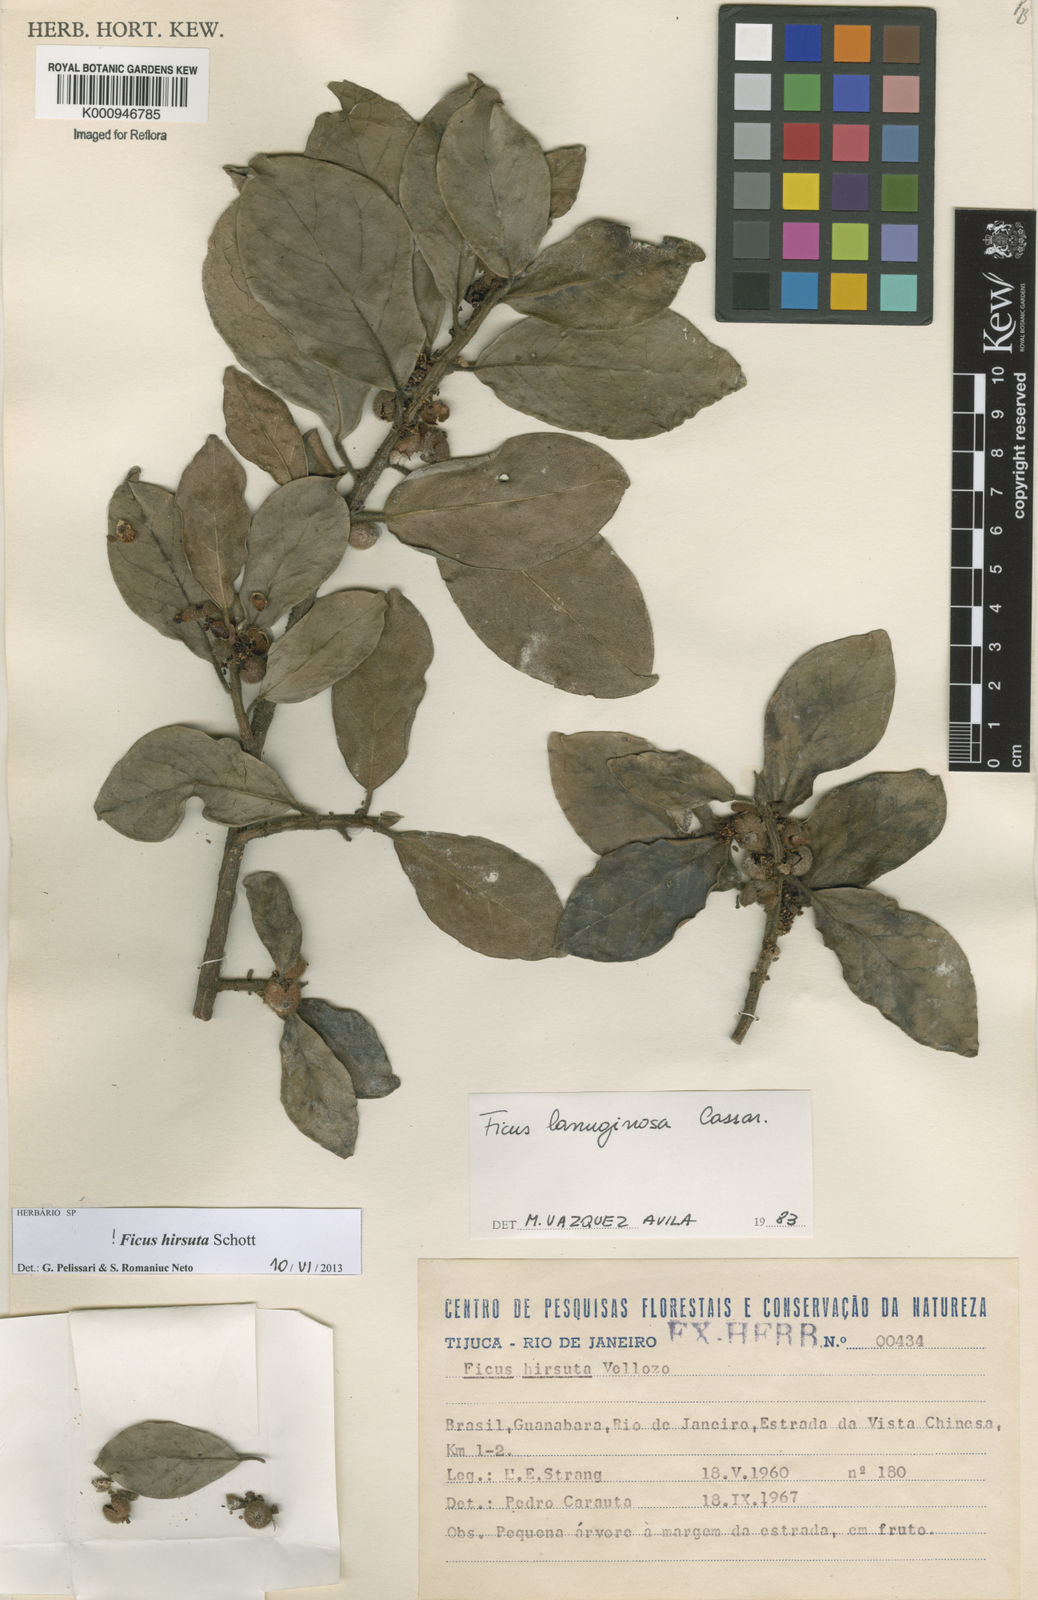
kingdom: Plantae
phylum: Tracheophyta
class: Magnoliopsida
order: Rosales
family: Moraceae
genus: Ficus
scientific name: Ficus hirsuta
